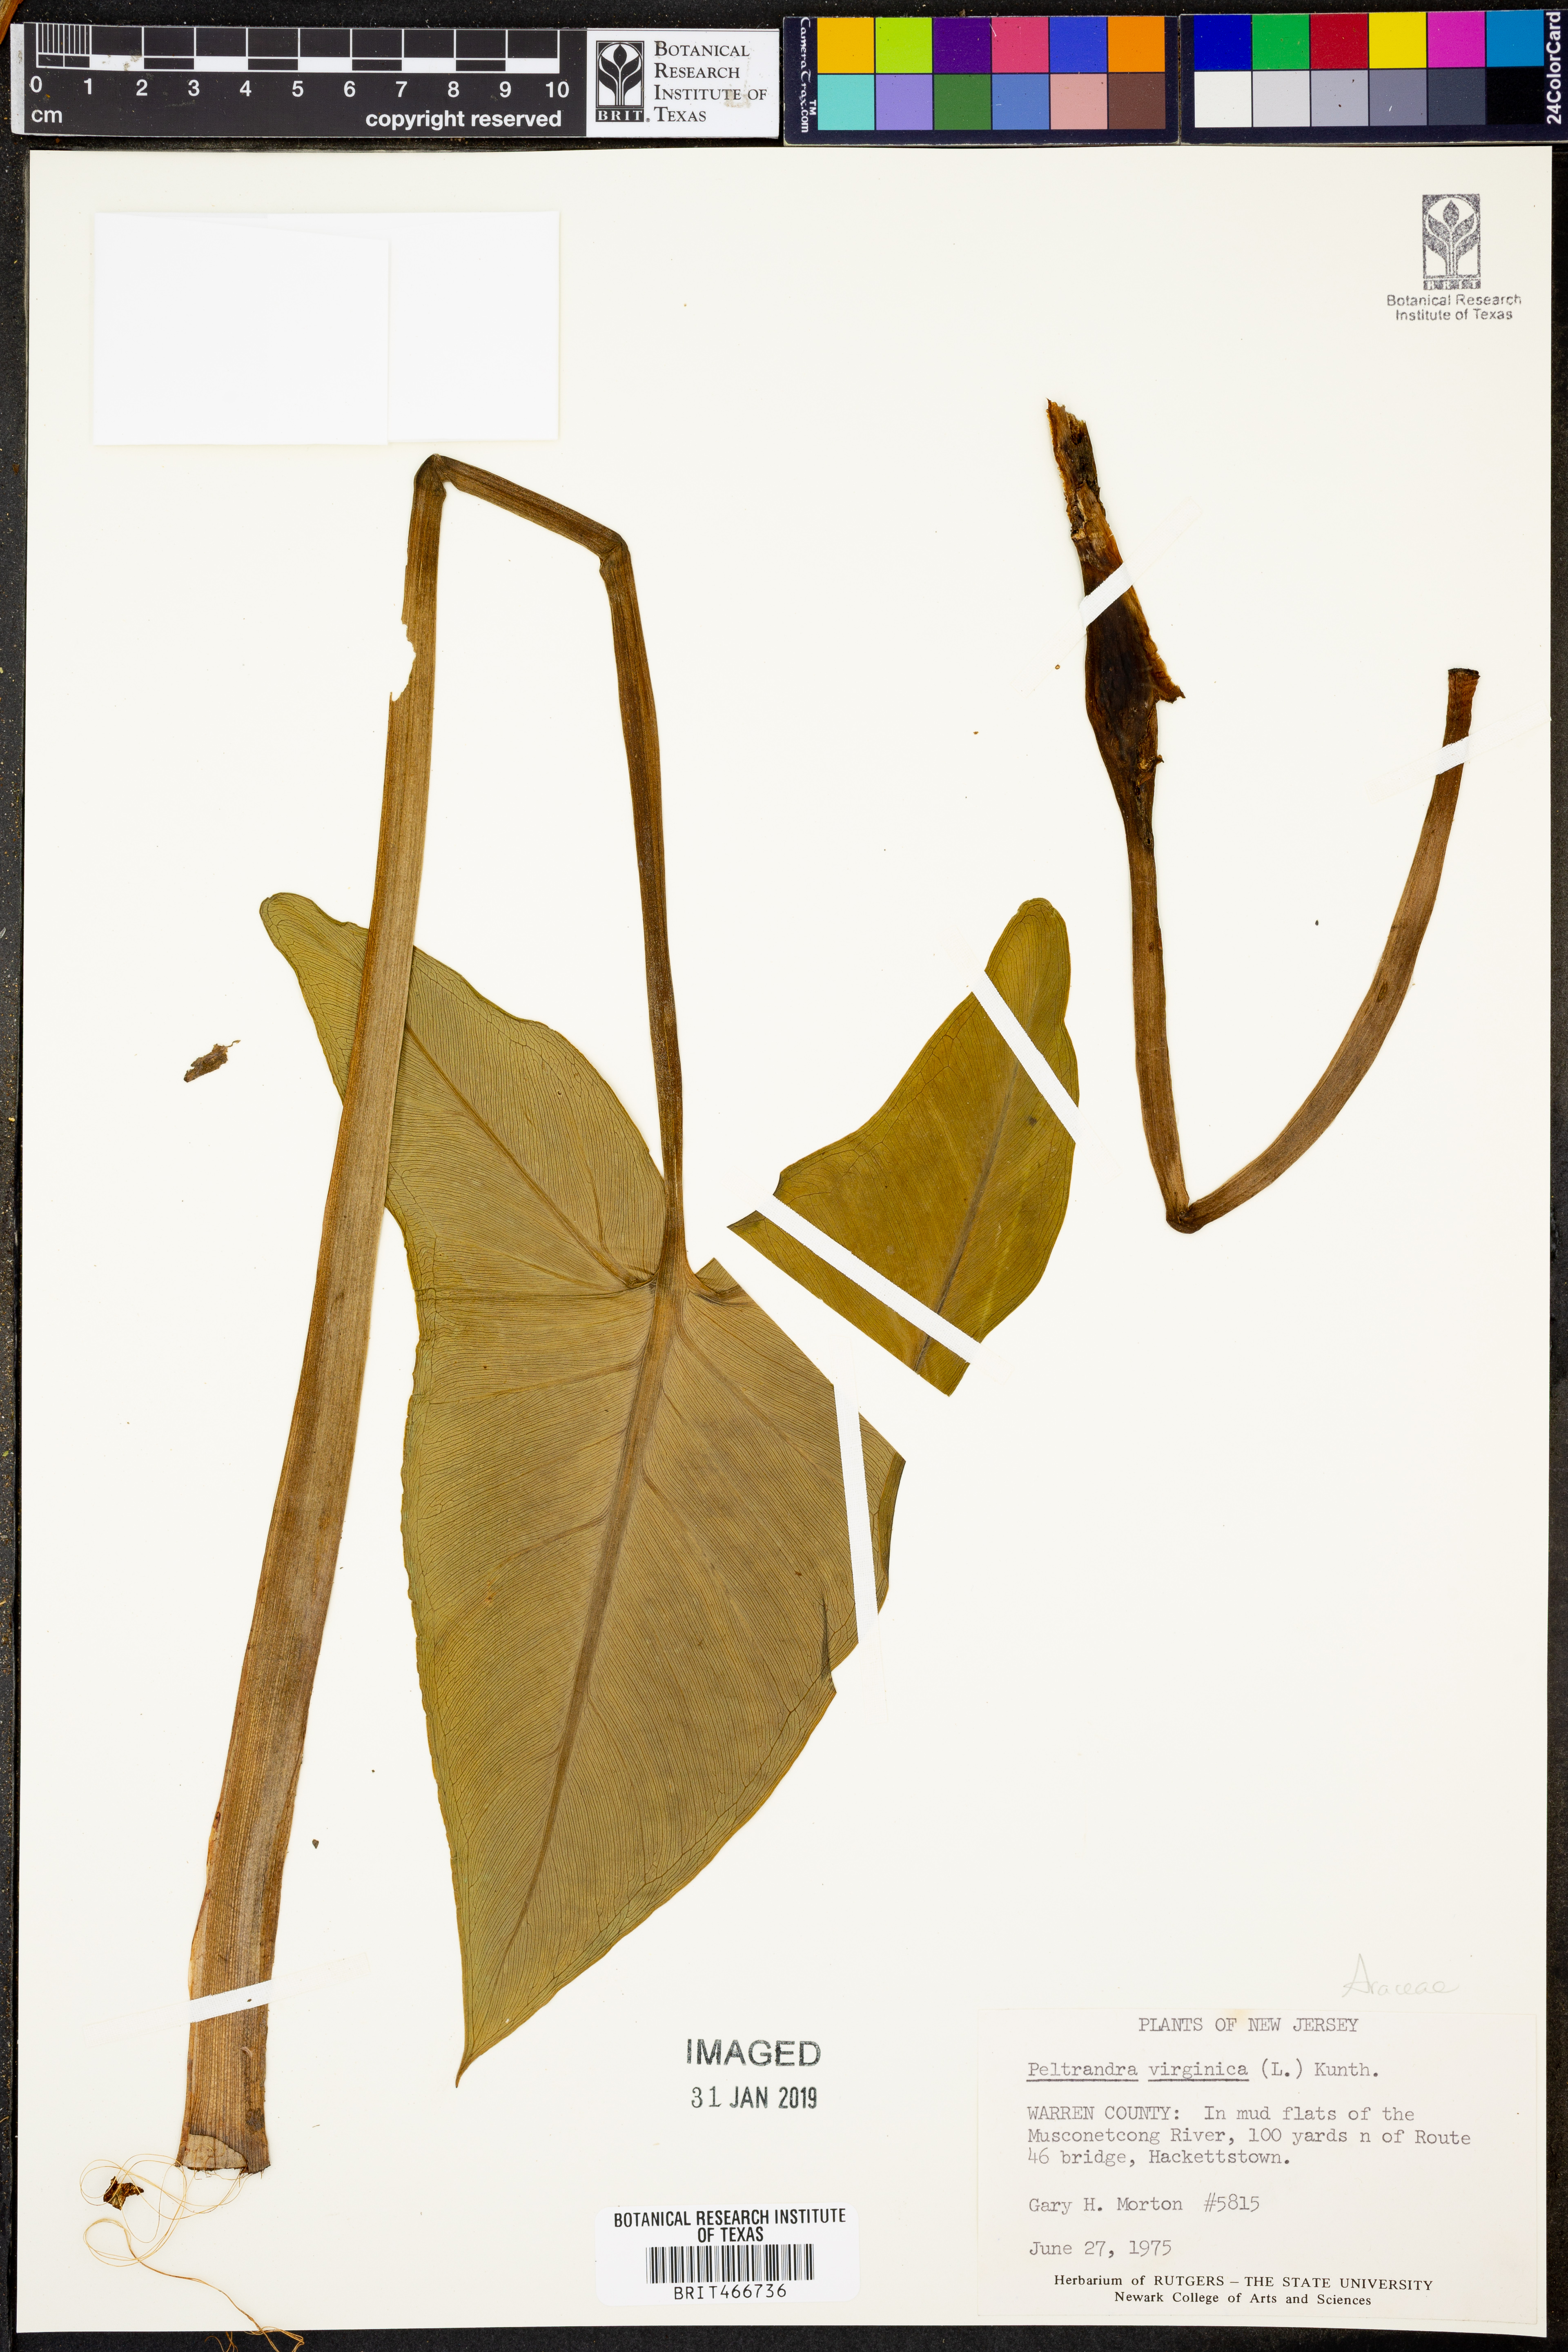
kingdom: Plantae
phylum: Tracheophyta
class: Liliopsida
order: Alismatales
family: Araceae
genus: Peltandra
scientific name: Peltandra virginica
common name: Arrow arum
